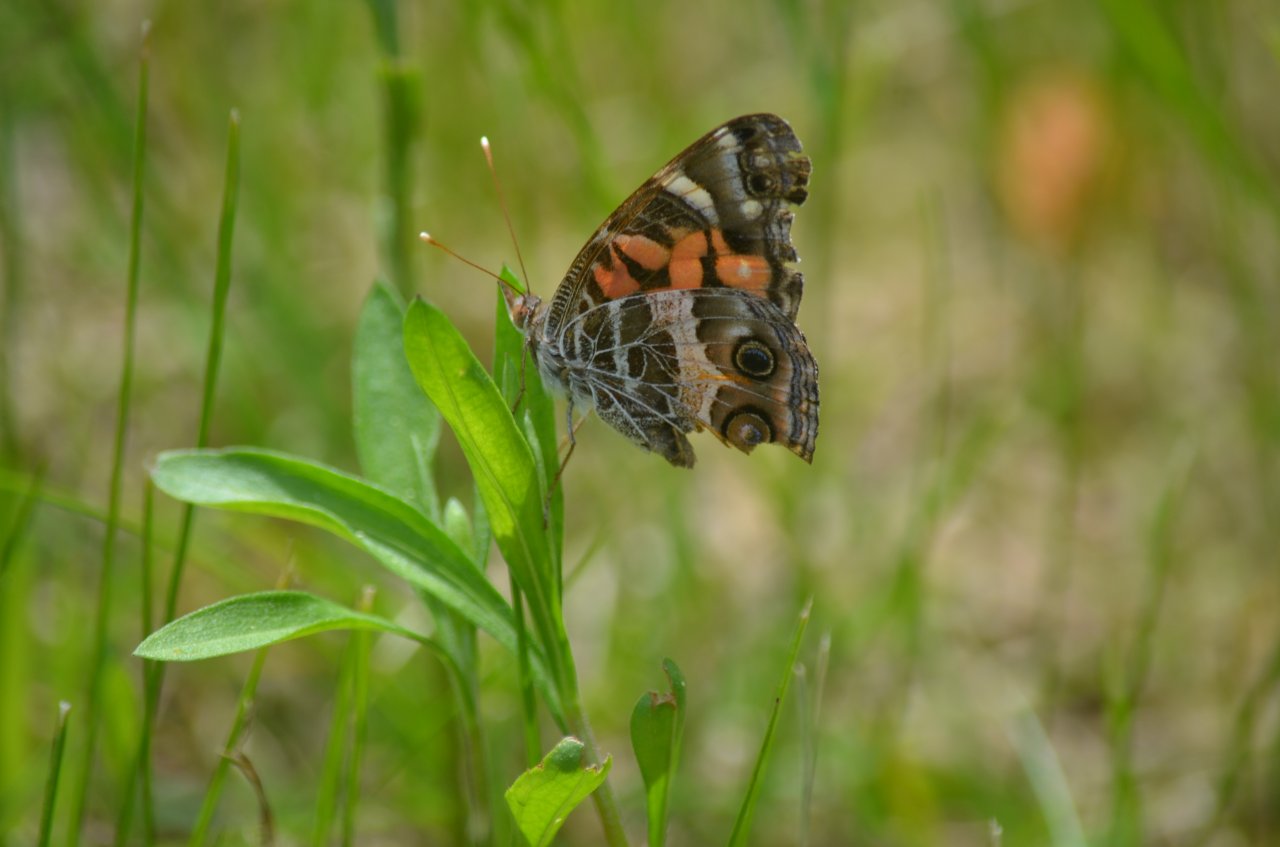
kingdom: Animalia
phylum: Arthropoda
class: Insecta
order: Lepidoptera
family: Nymphalidae
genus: Vanessa
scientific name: Vanessa virginiensis
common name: American Lady
